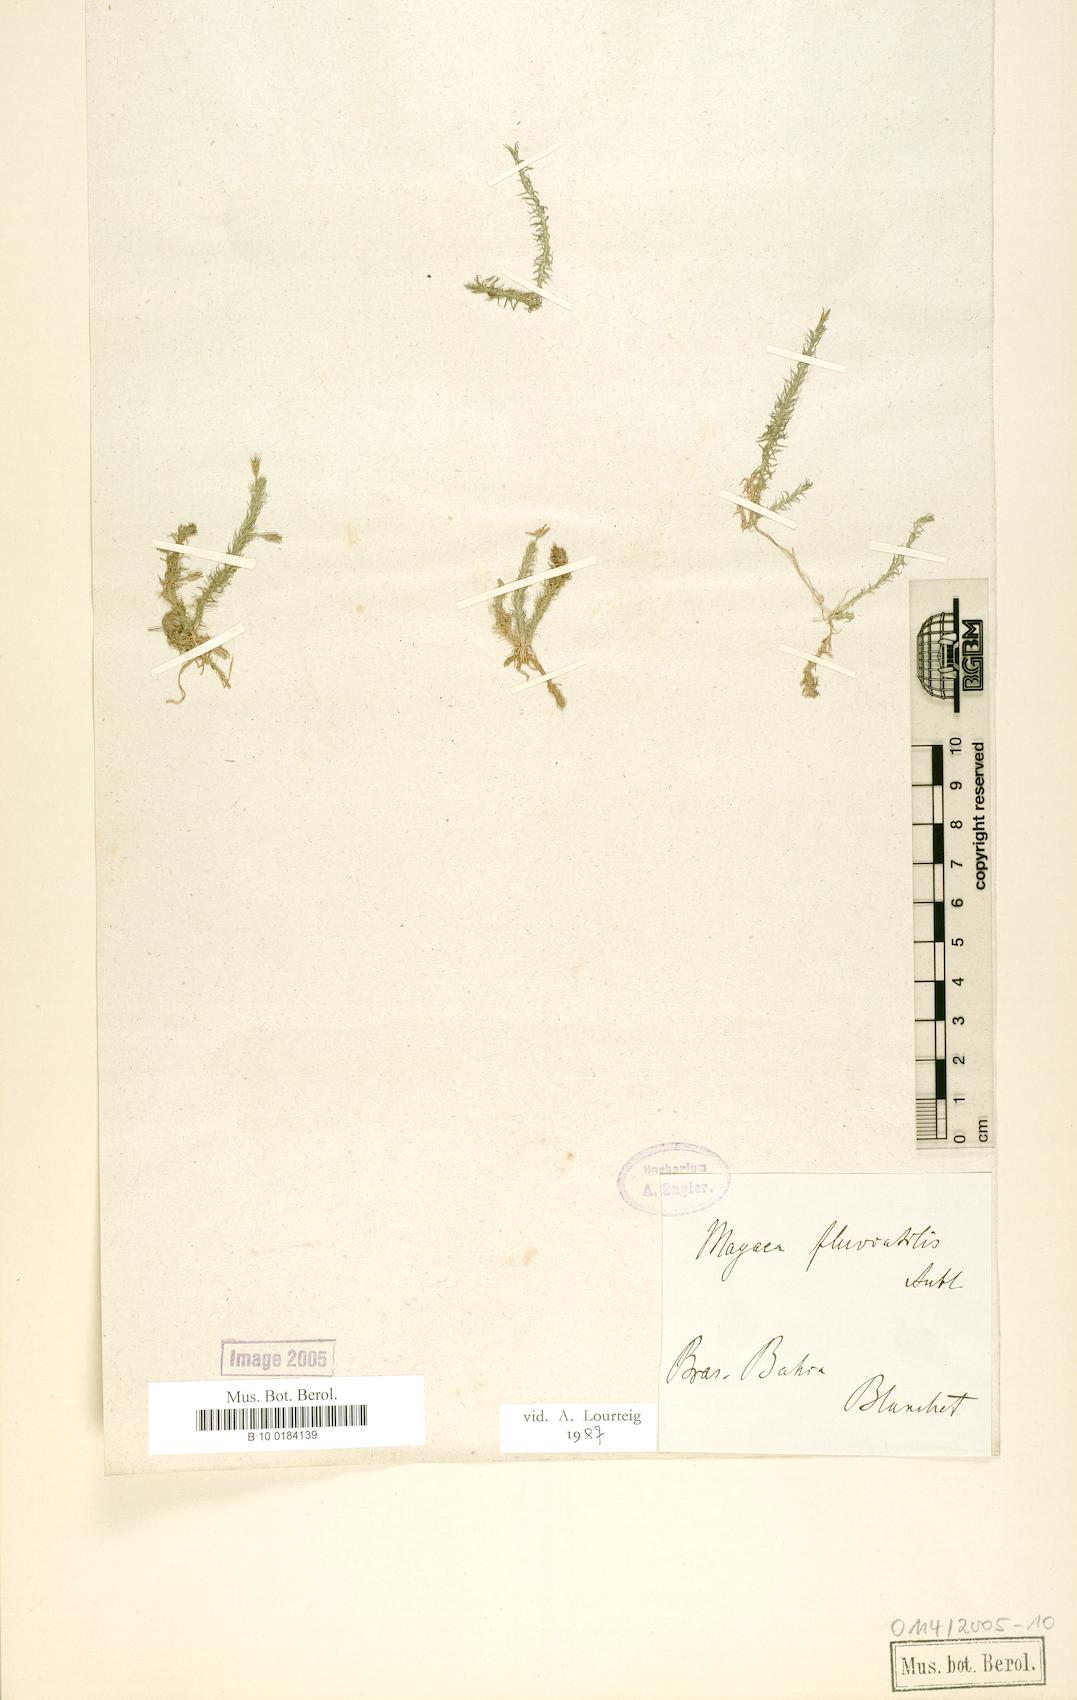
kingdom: Plantae
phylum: Tracheophyta
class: Liliopsida
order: Poales
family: Mayacaceae
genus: Mayaca
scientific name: Mayaca fluviatilis
